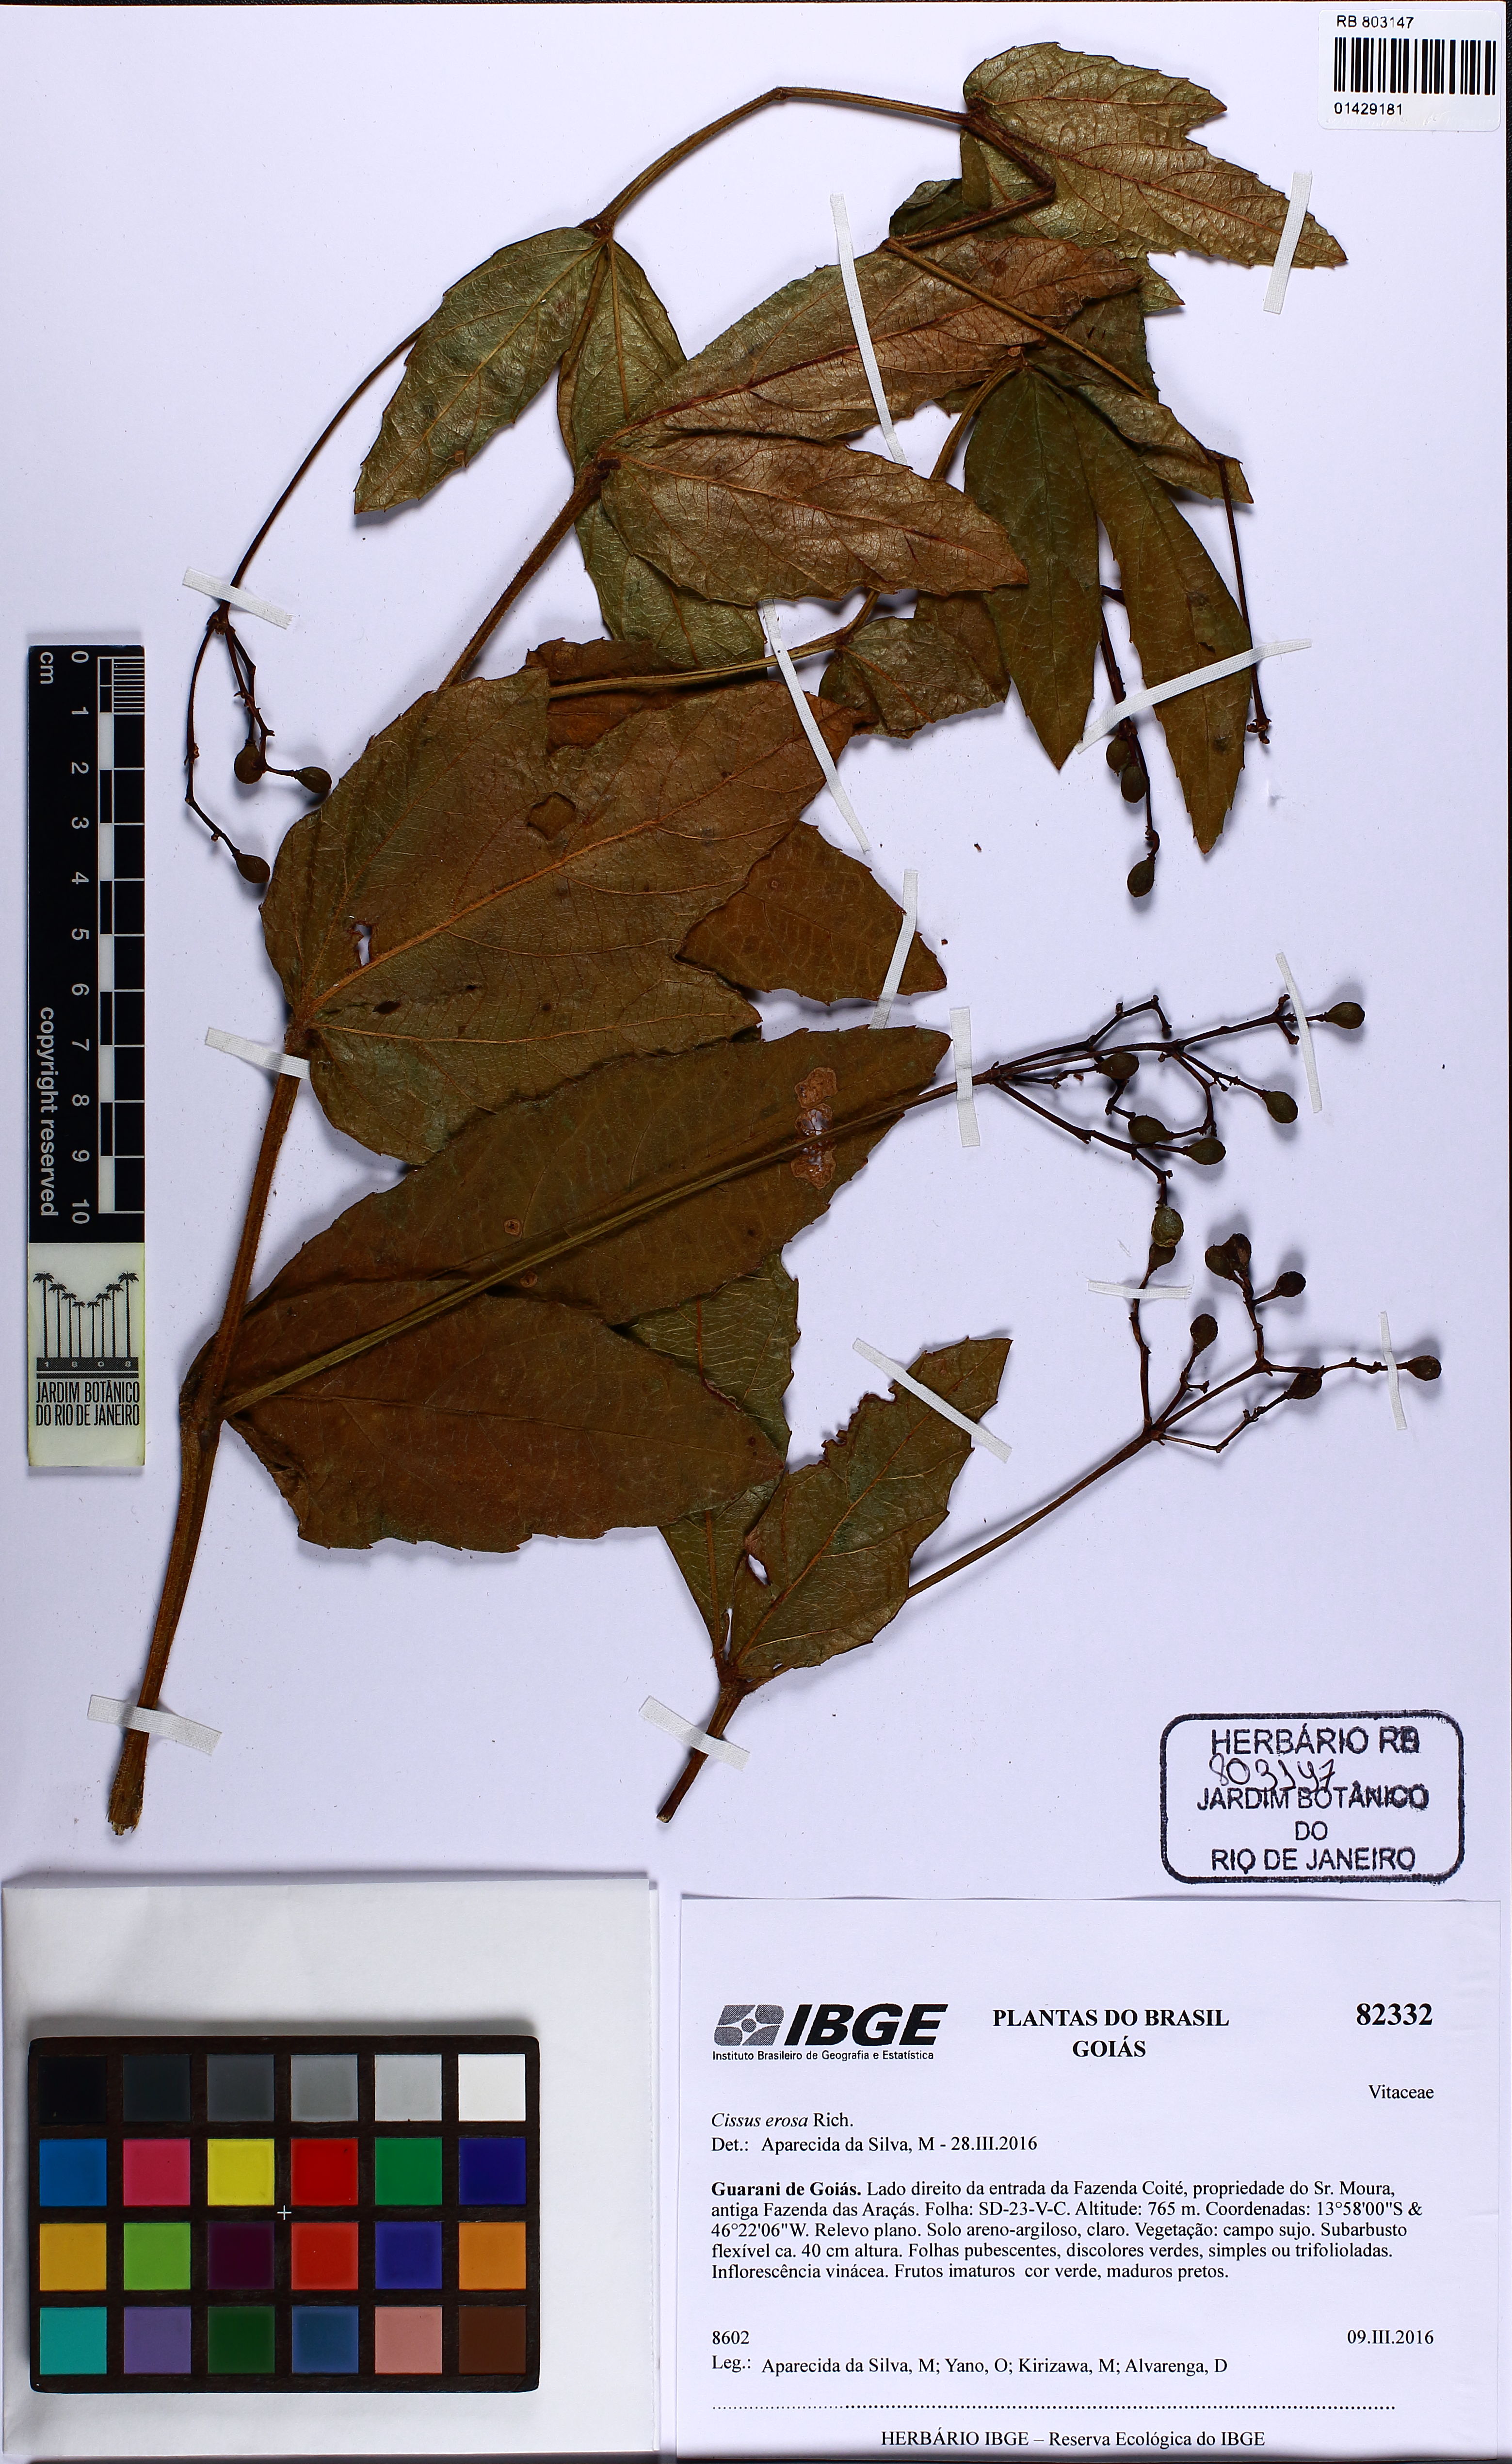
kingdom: Plantae
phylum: Tracheophyta
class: Magnoliopsida
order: Vitales
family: Vitaceae
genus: Cissus
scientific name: Cissus erosa
